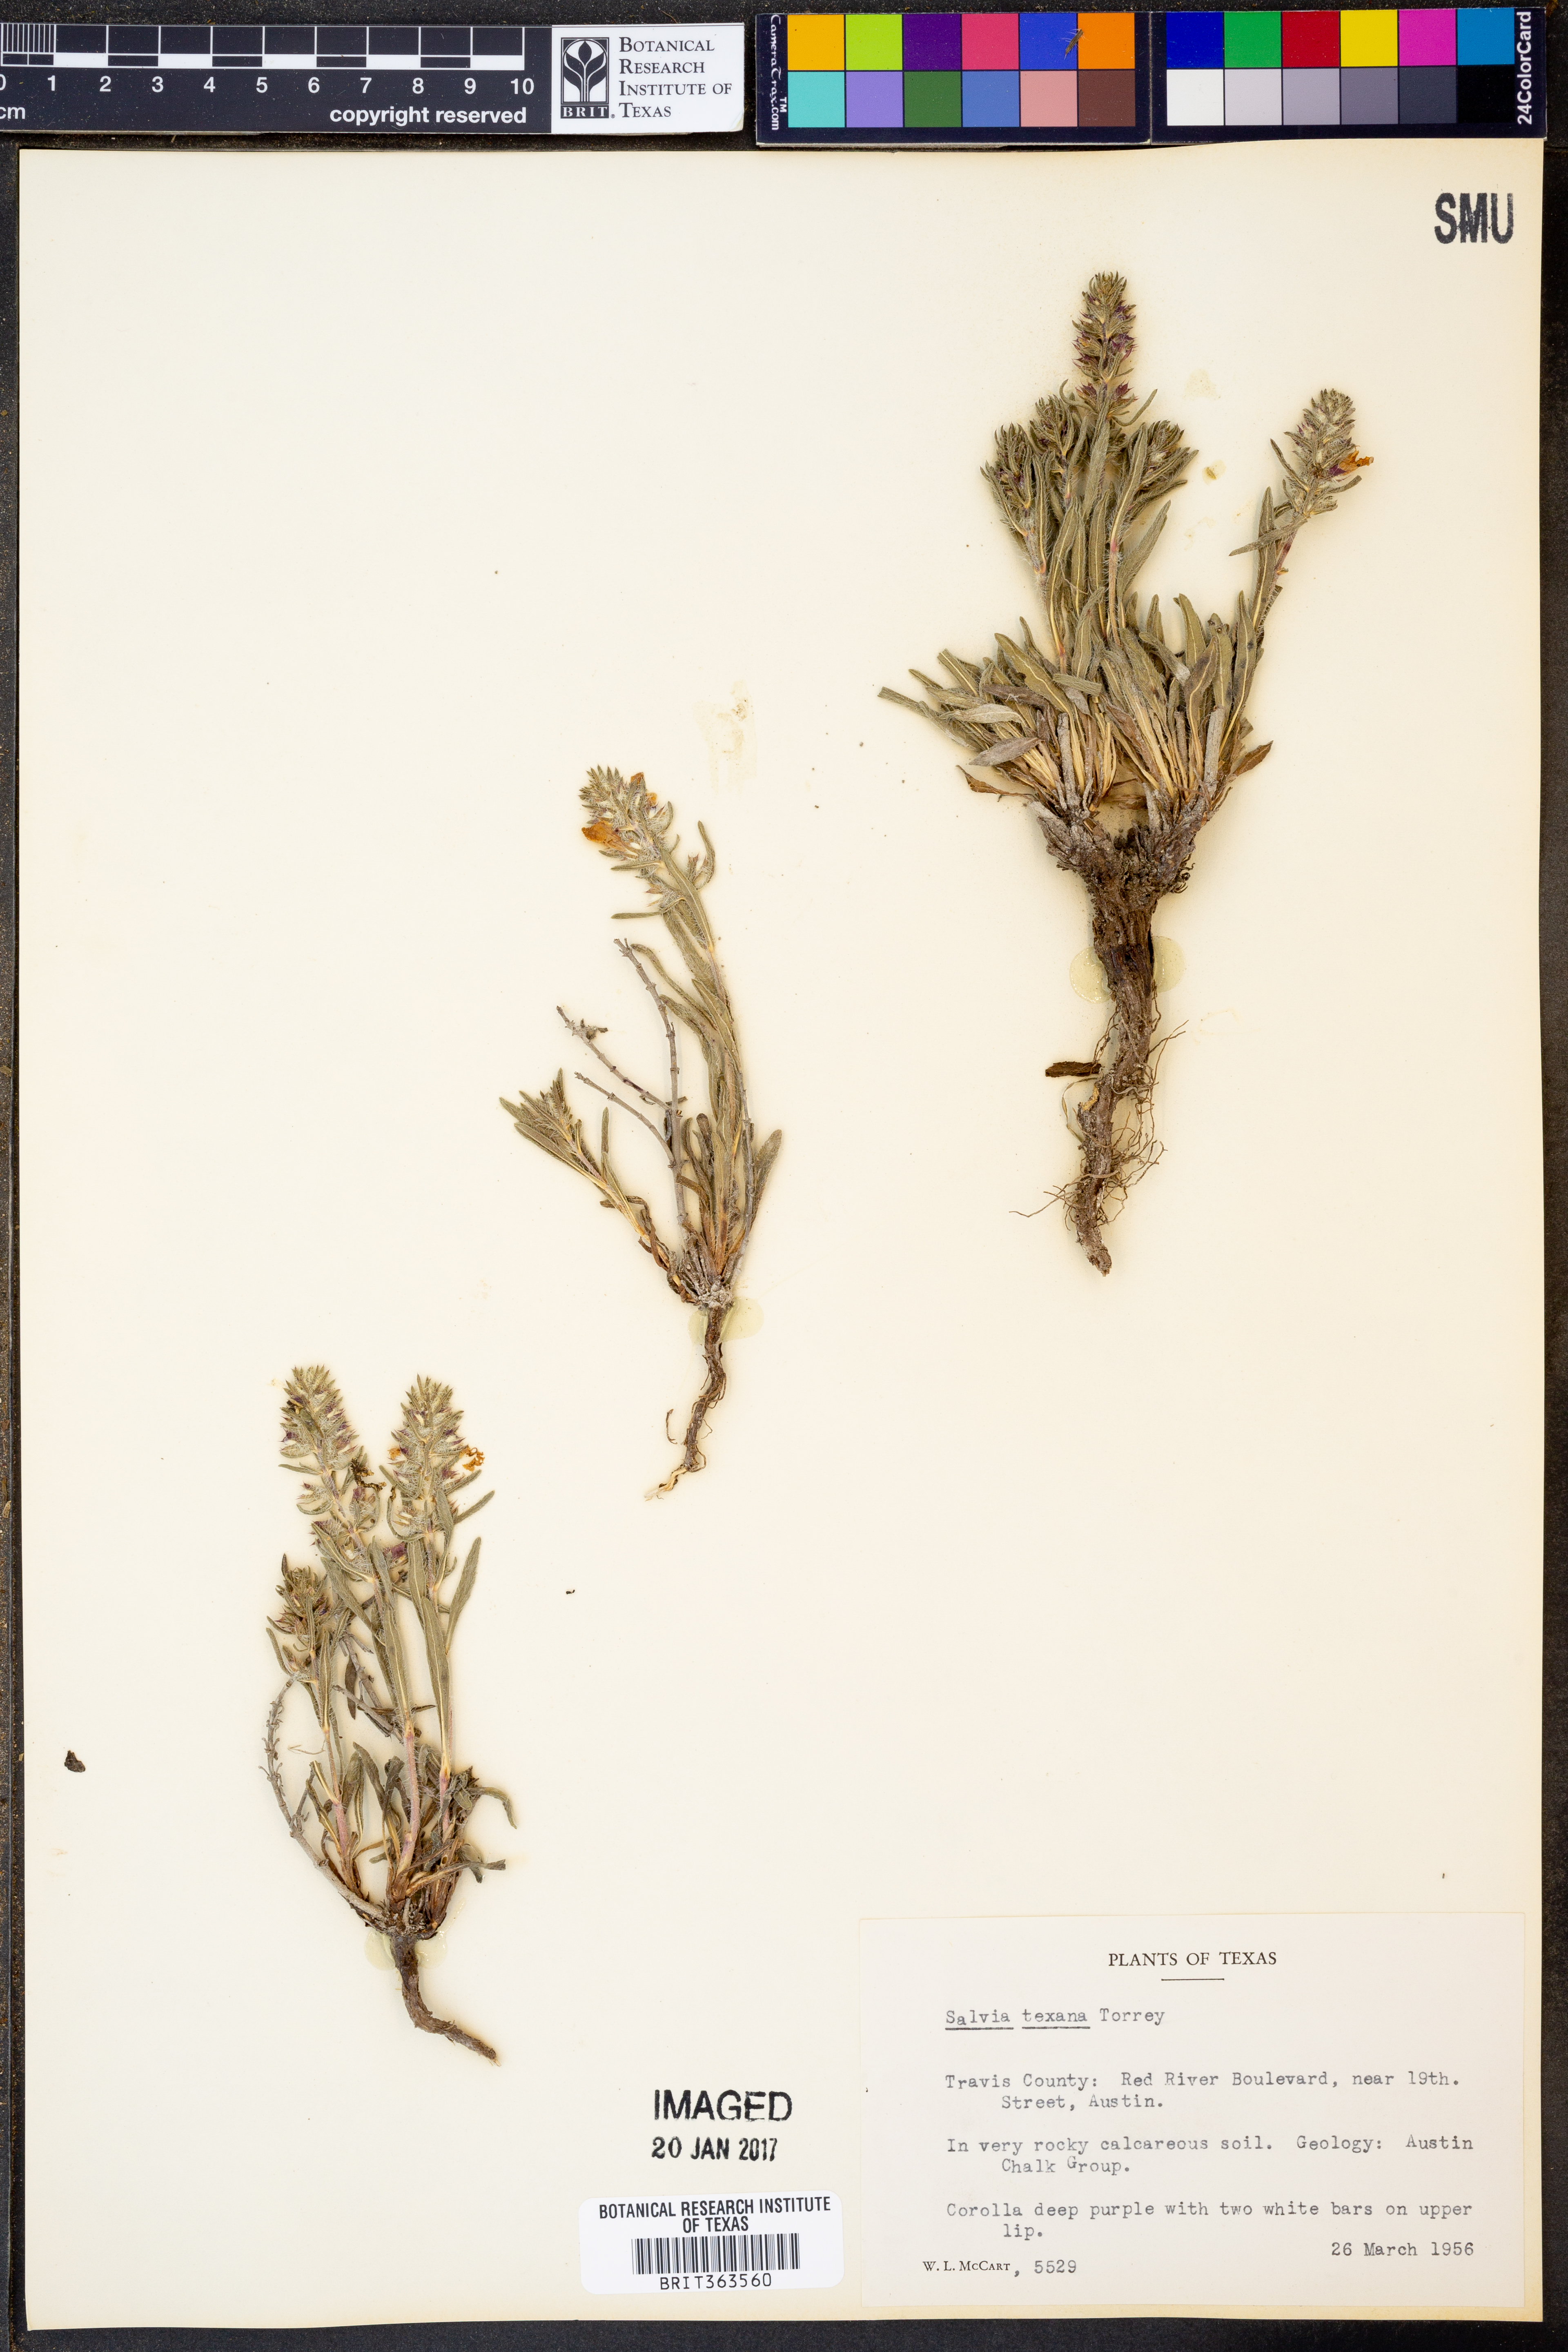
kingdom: Plantae
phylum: Tracheophyta
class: Magnoliopsida
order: Lamiales
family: Lamiaceae
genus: Salvia
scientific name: Salvia texana
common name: Texas sage
